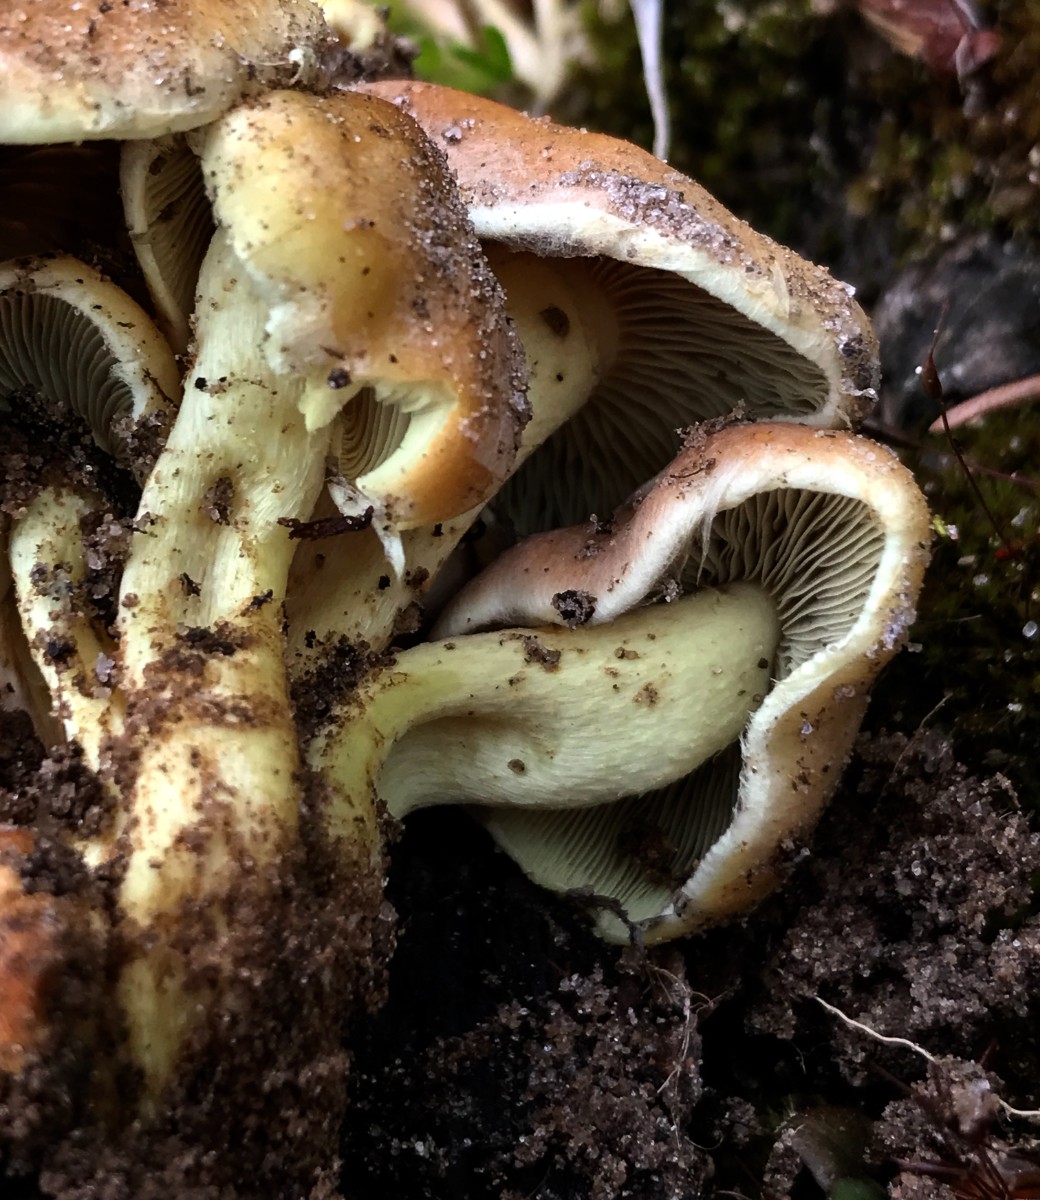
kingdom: Fungi
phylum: Basidiomycota
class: Agaricomycetes
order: Agaricales
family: Strophariaceae
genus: Hypholoma
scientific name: Hypholoma fasciculare
